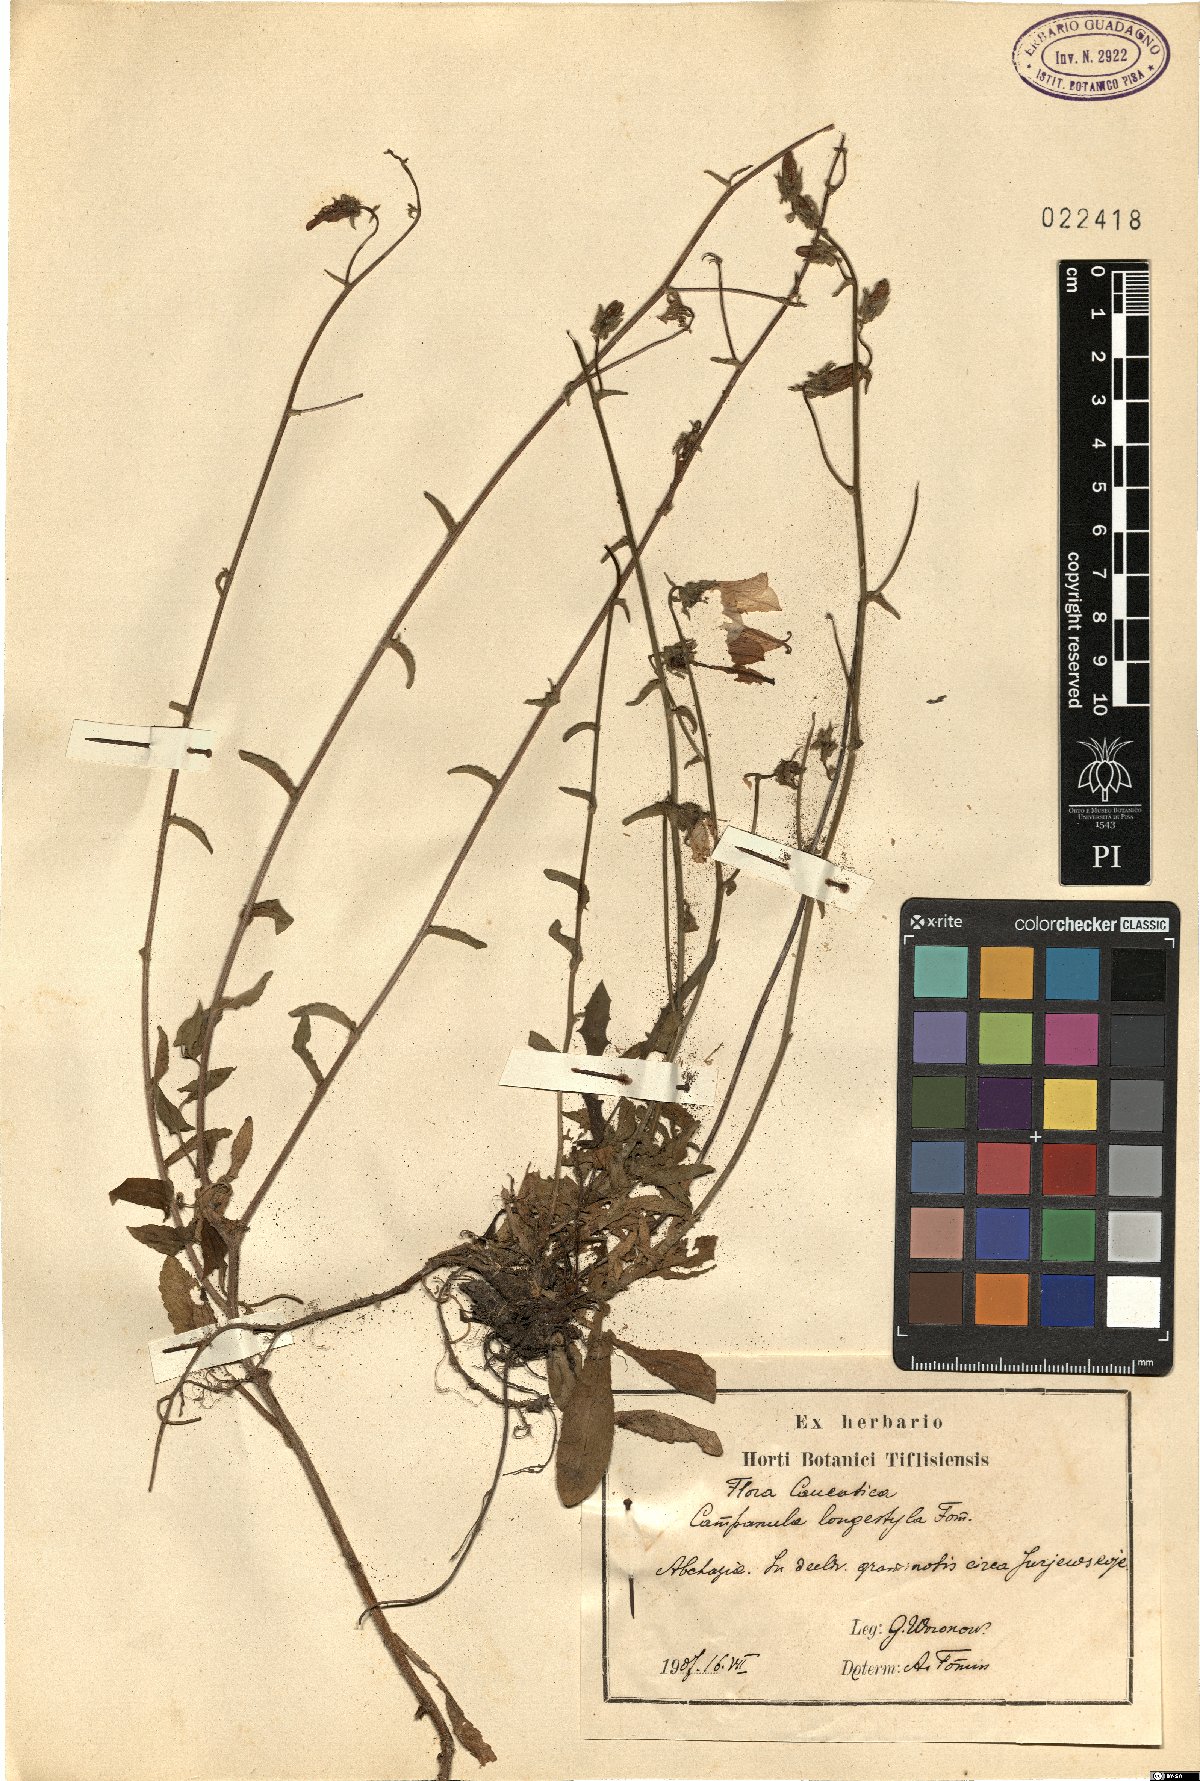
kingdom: Plantae
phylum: Tracheophyta
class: Magnoliopsida
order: Asterales
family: Campanulaceae
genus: Campanula
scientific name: Campanula longistyla
